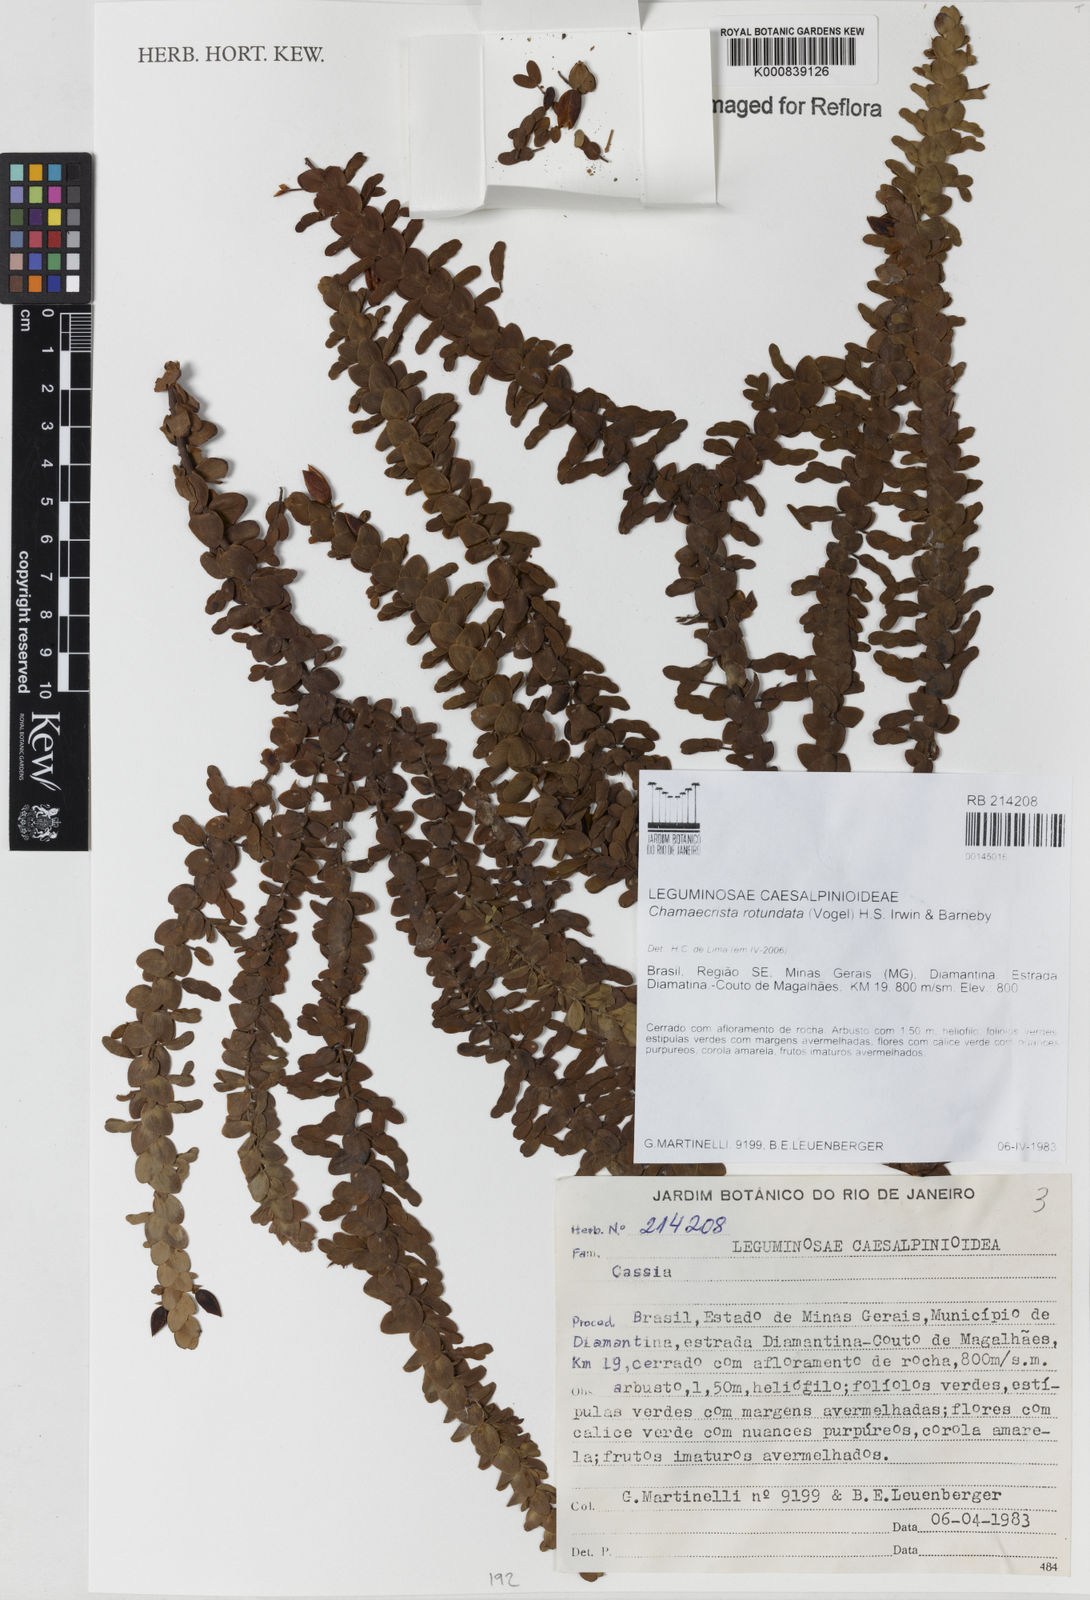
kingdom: Plantae
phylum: Tracheophyta
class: Magnoliopsida
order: Fabales
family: Fabaceae
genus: Chamaecrista
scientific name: Chamaecrista
